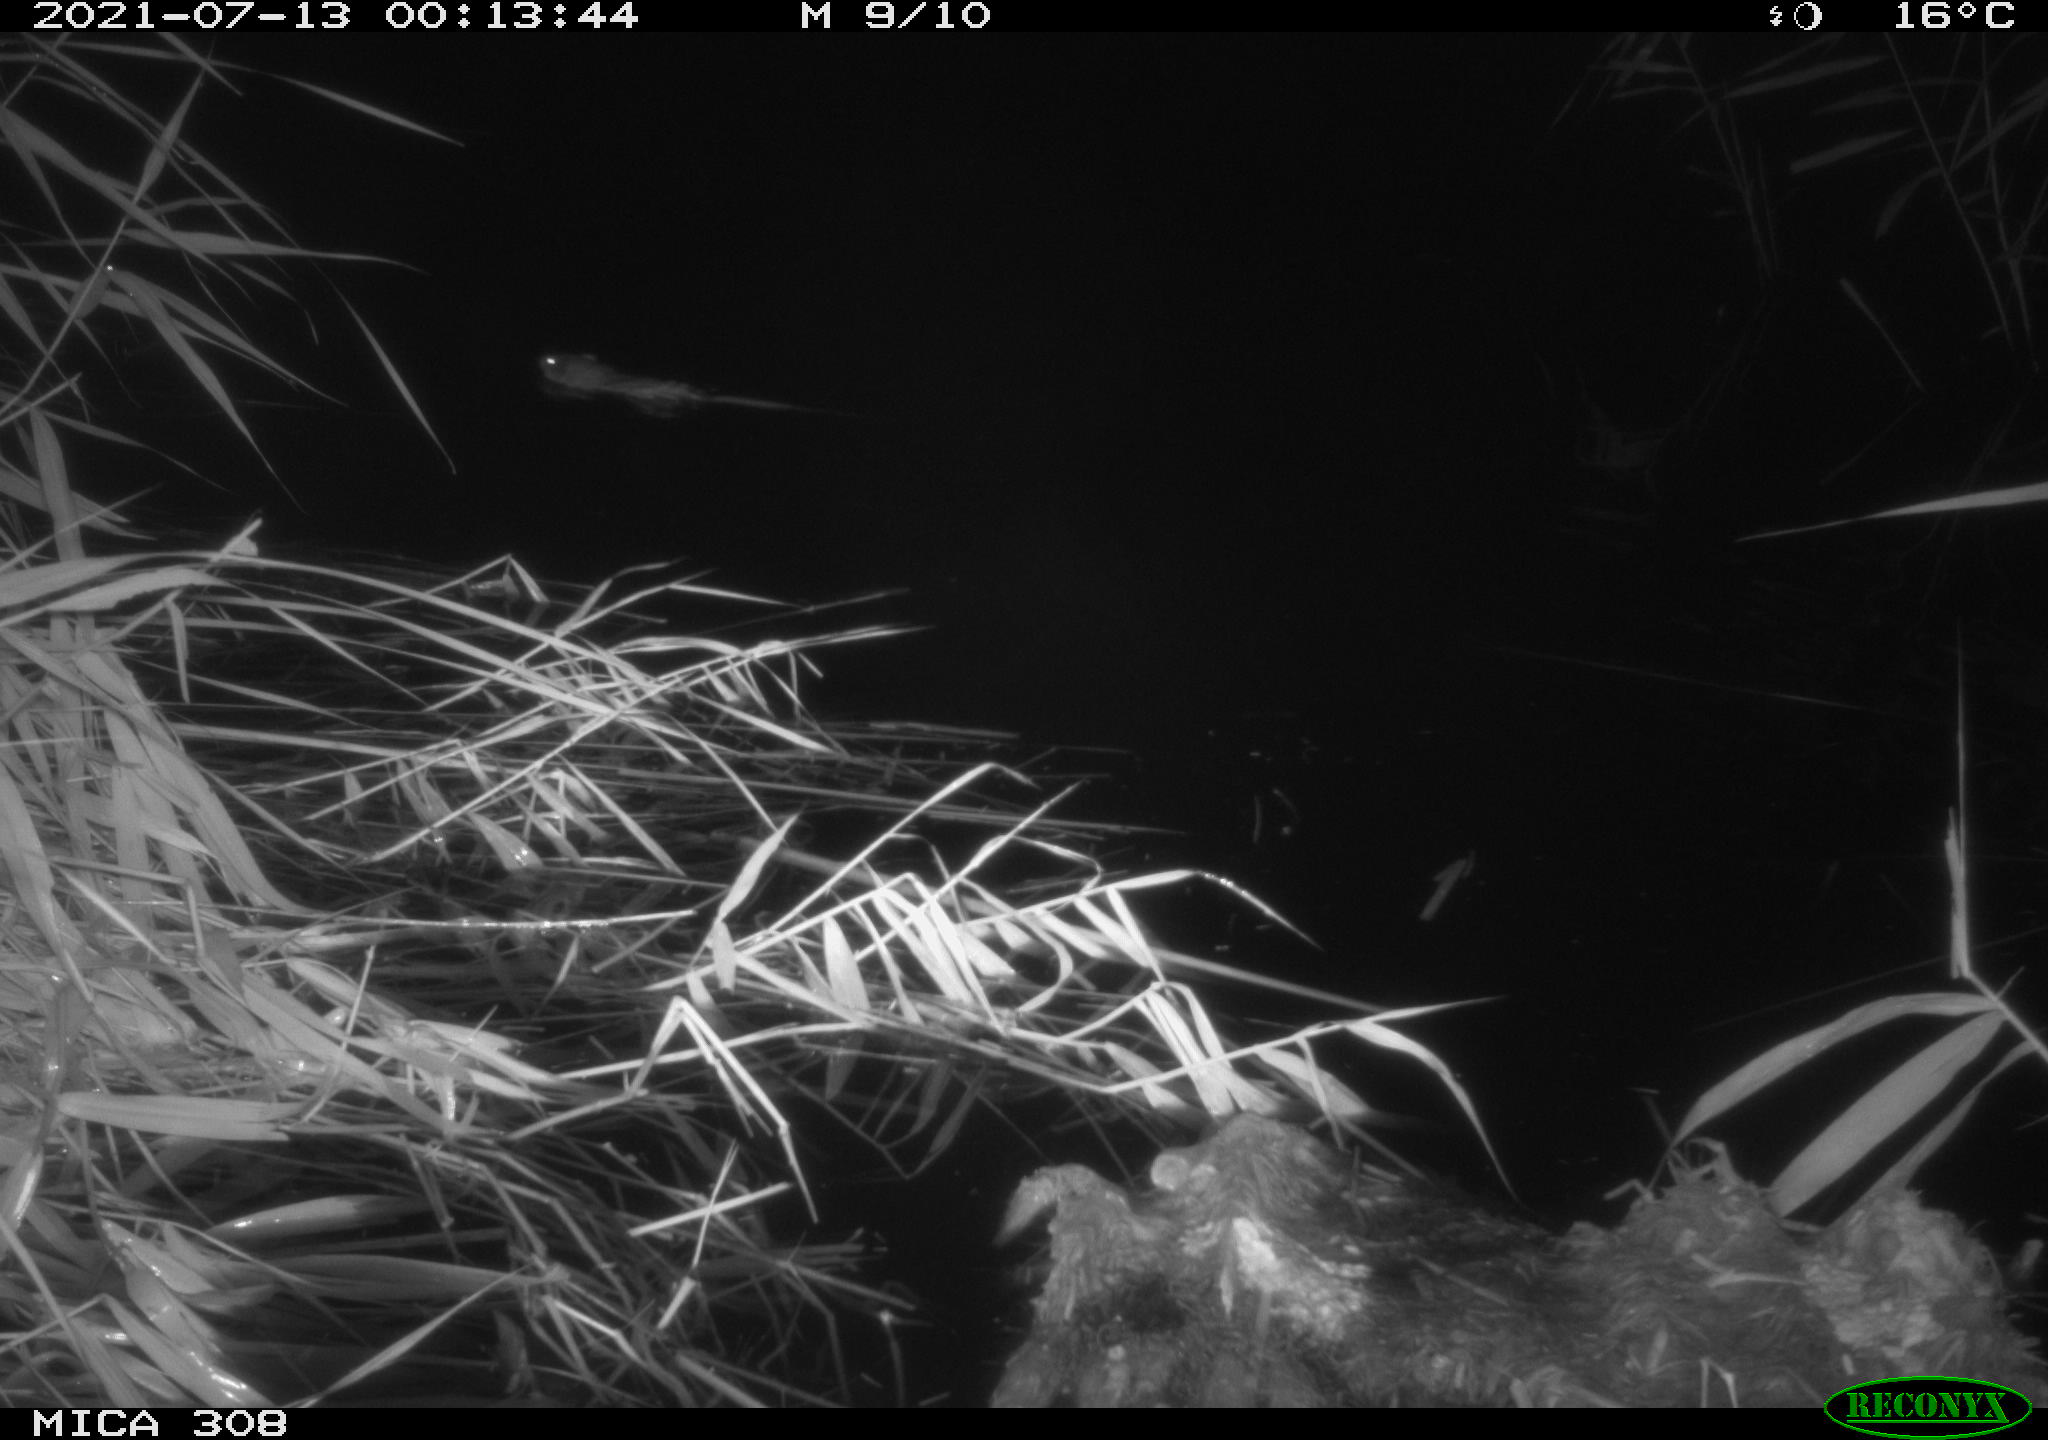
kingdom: Animalia
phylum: Chordata
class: Mammalia
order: Rodentia
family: Cricetidae
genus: Ondatra
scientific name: Ondatra zibethicus
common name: Muskrat
